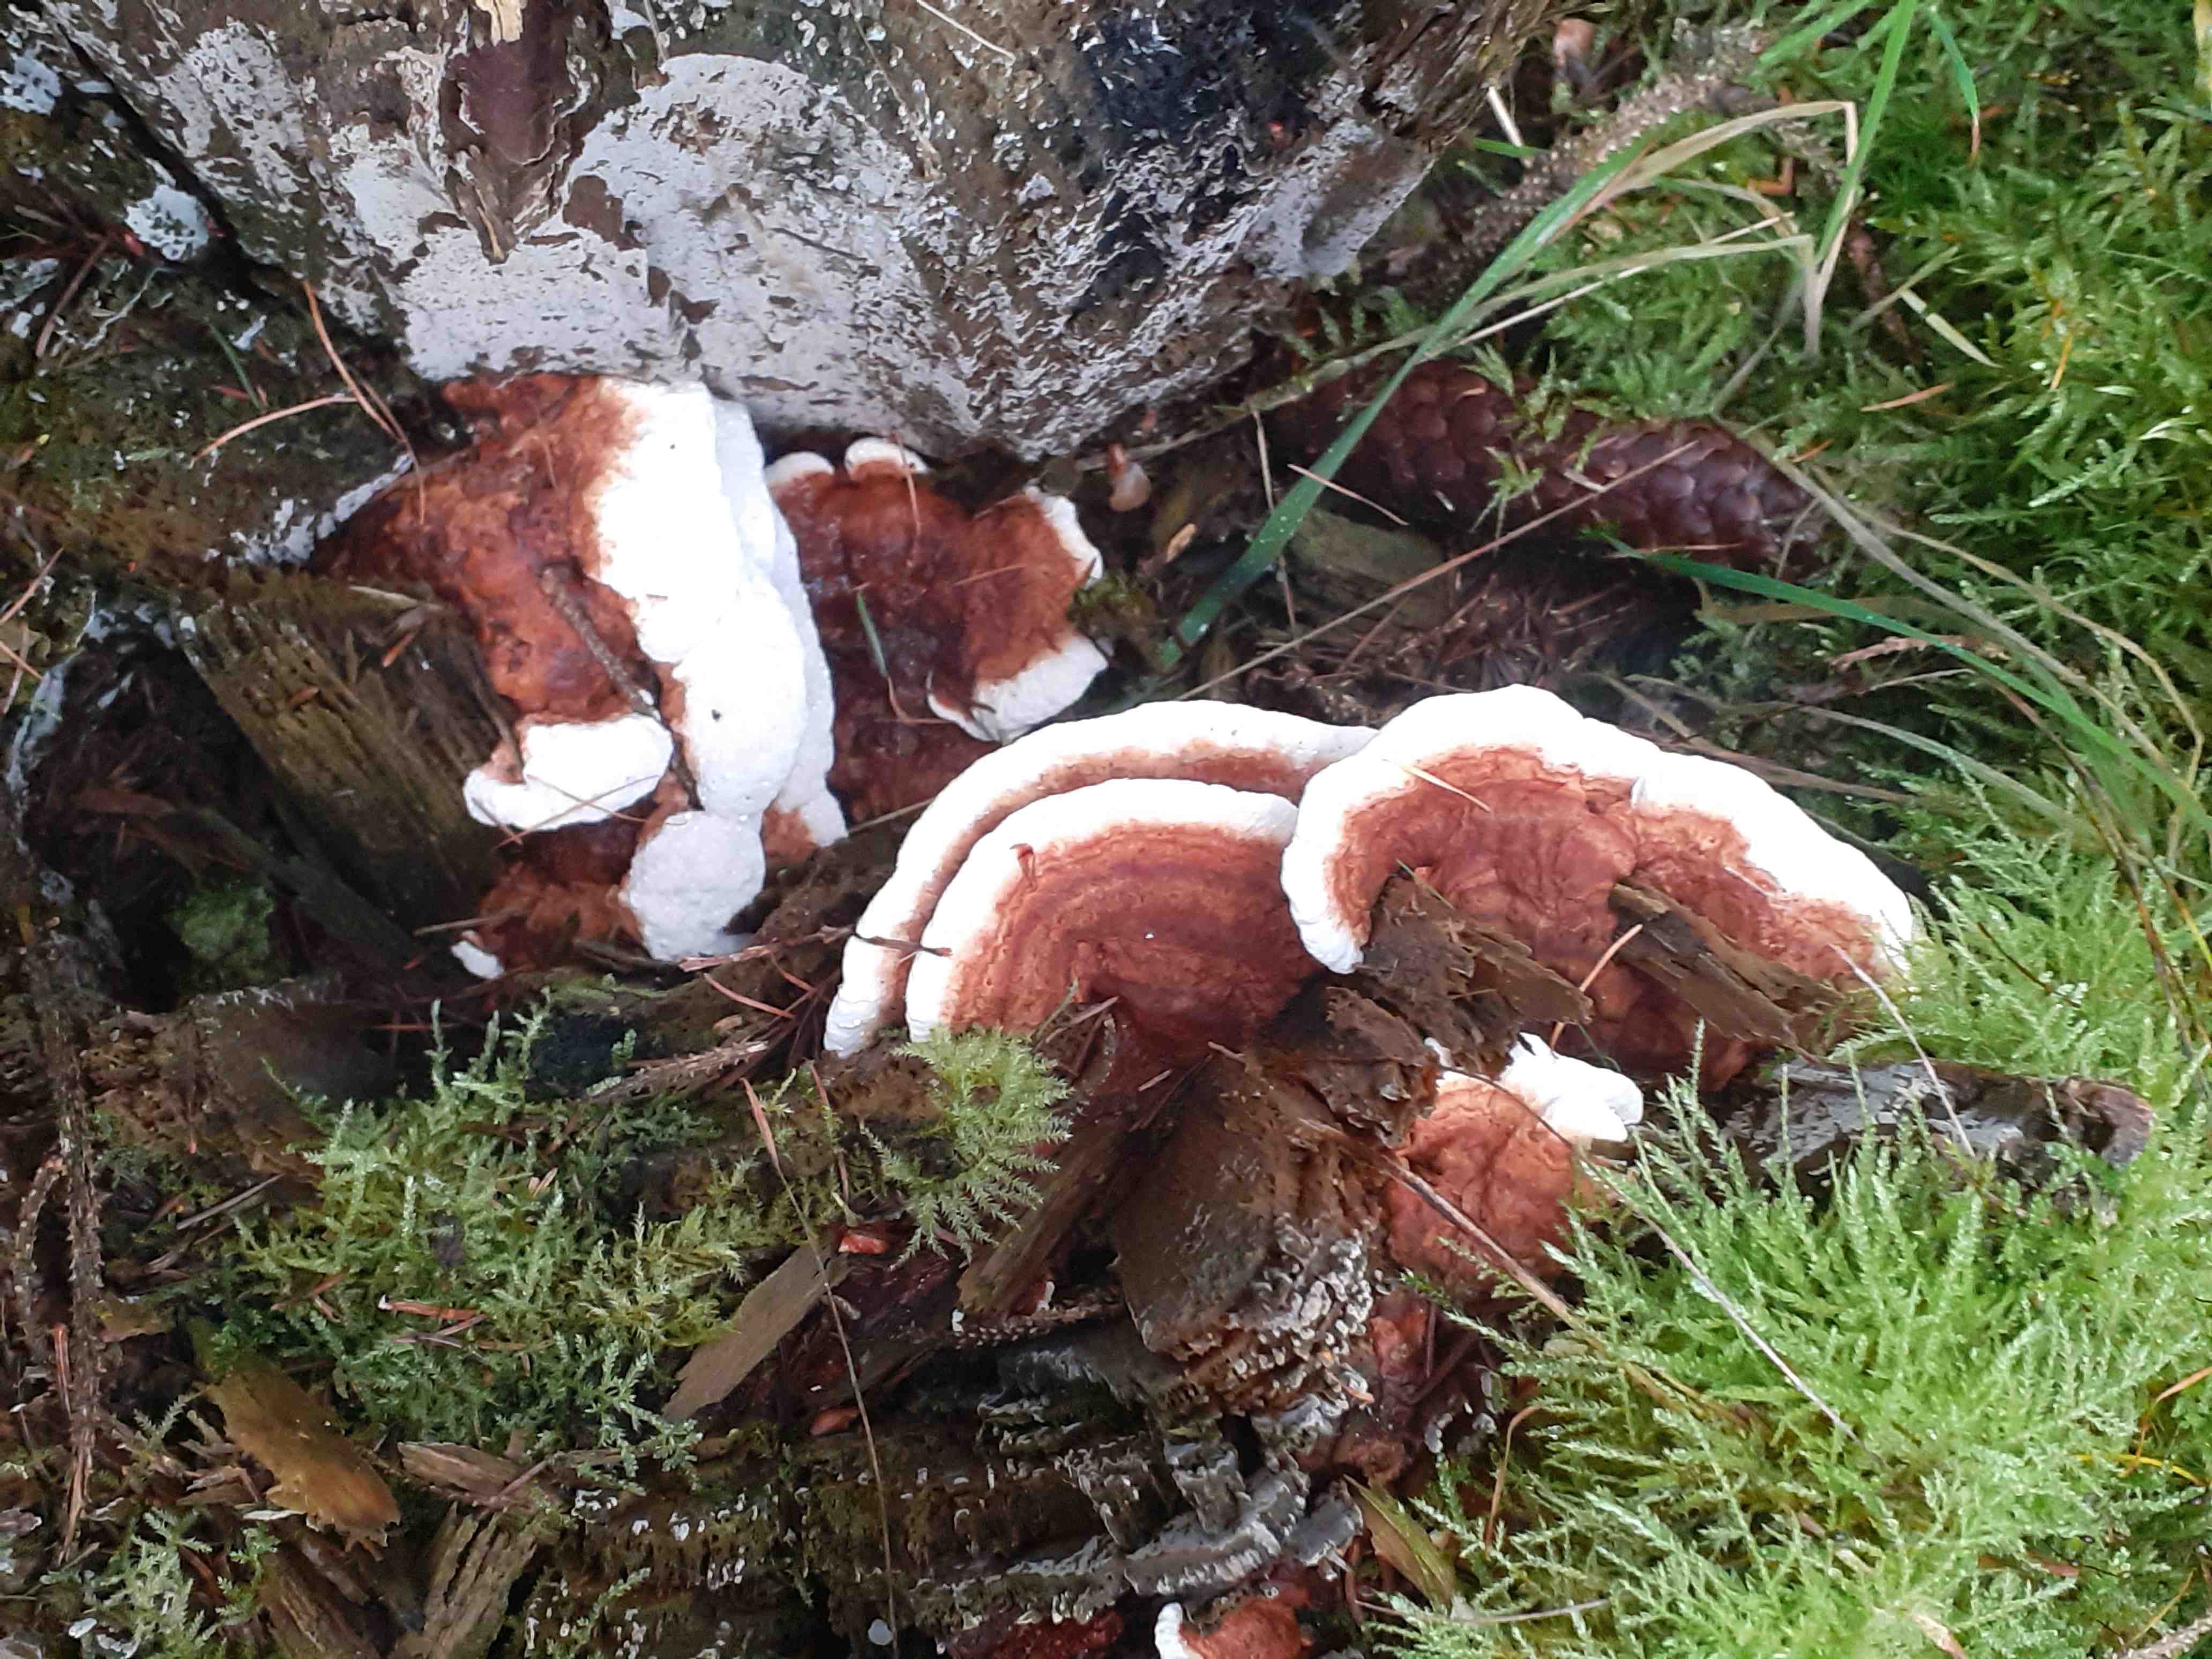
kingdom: Fungi
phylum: Basidiomycota
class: Agaricomycetes
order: Russulales
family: Bondarzewiaceae
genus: Heterobasidion
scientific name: Heterobasidion annosum
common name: almindelig rodfordærver
